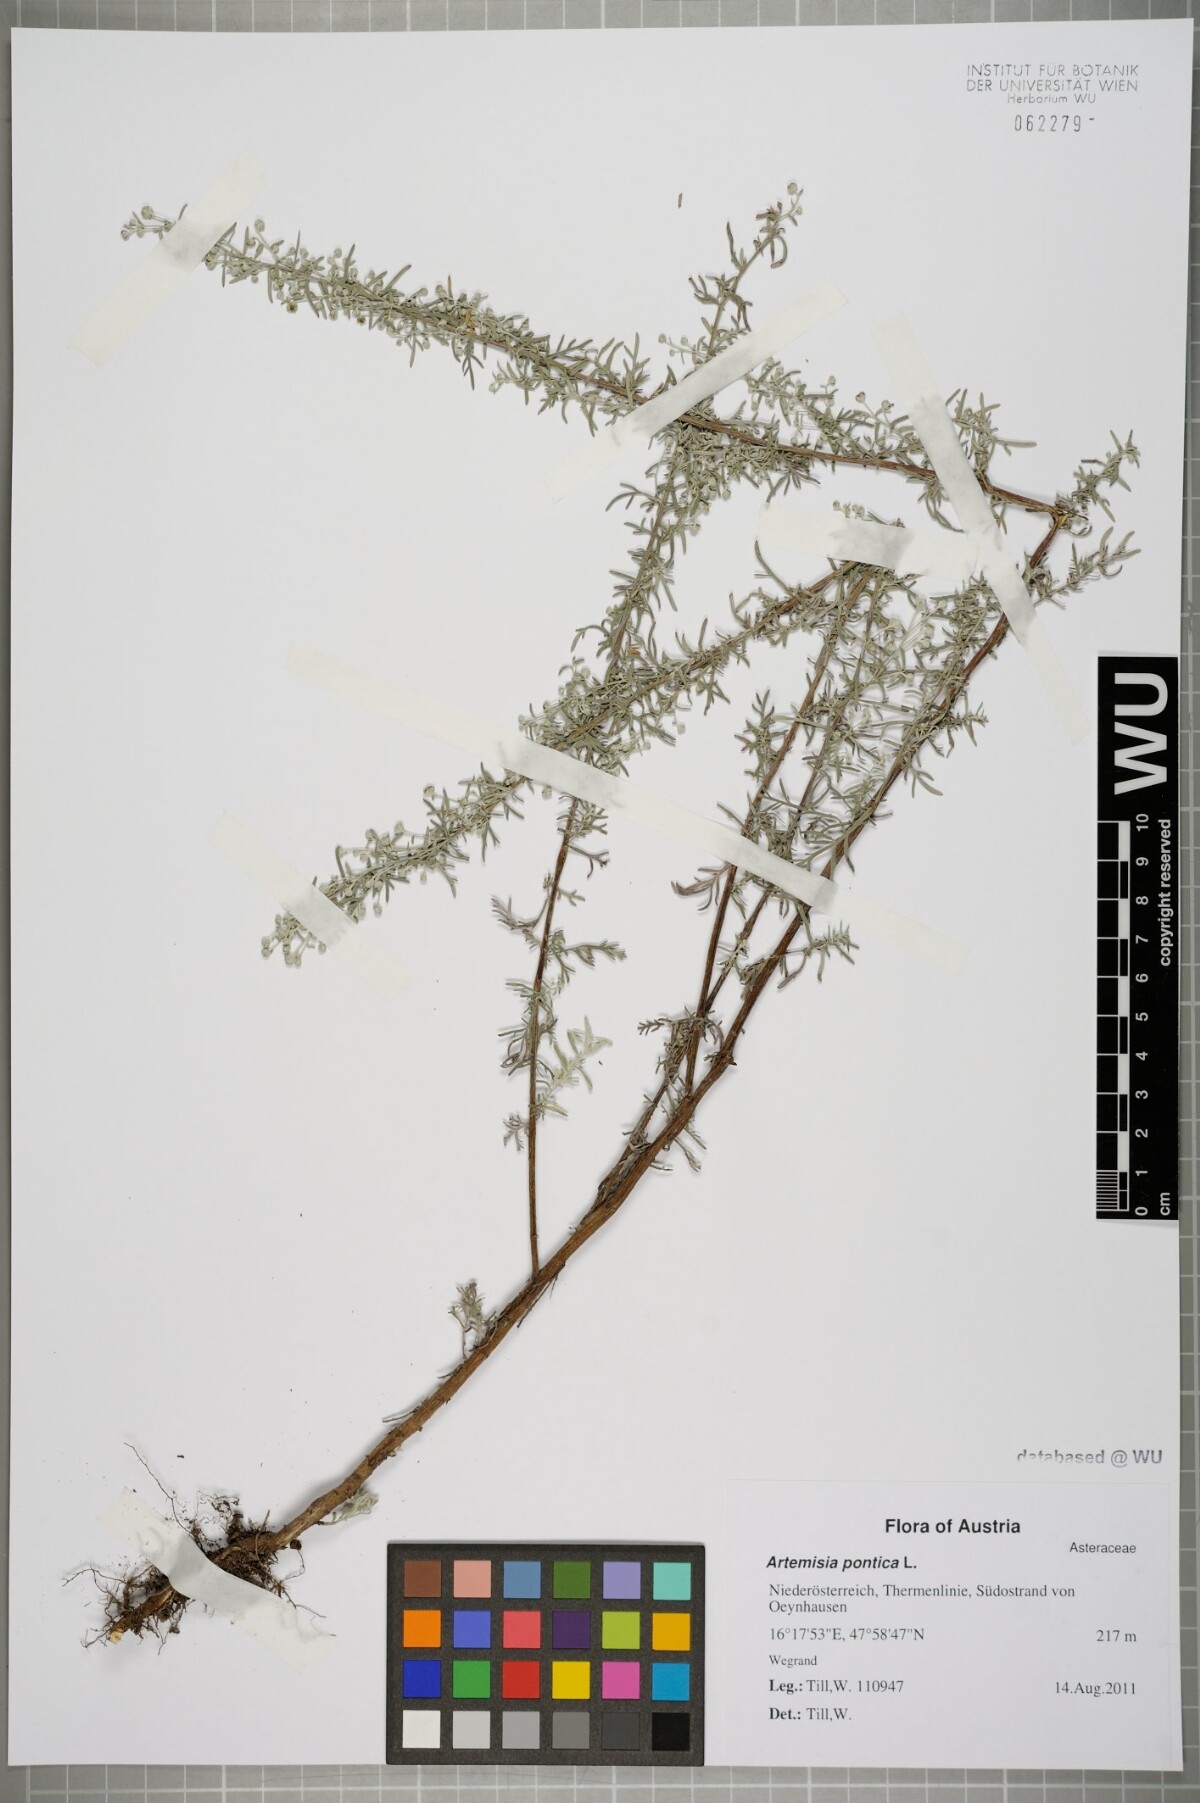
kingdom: Plantae
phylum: Tracheophyta
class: Magnoliopsida
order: Asterales
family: Asteraceae
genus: Artemisia
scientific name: Artemisia pontica
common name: Roman wormwood
